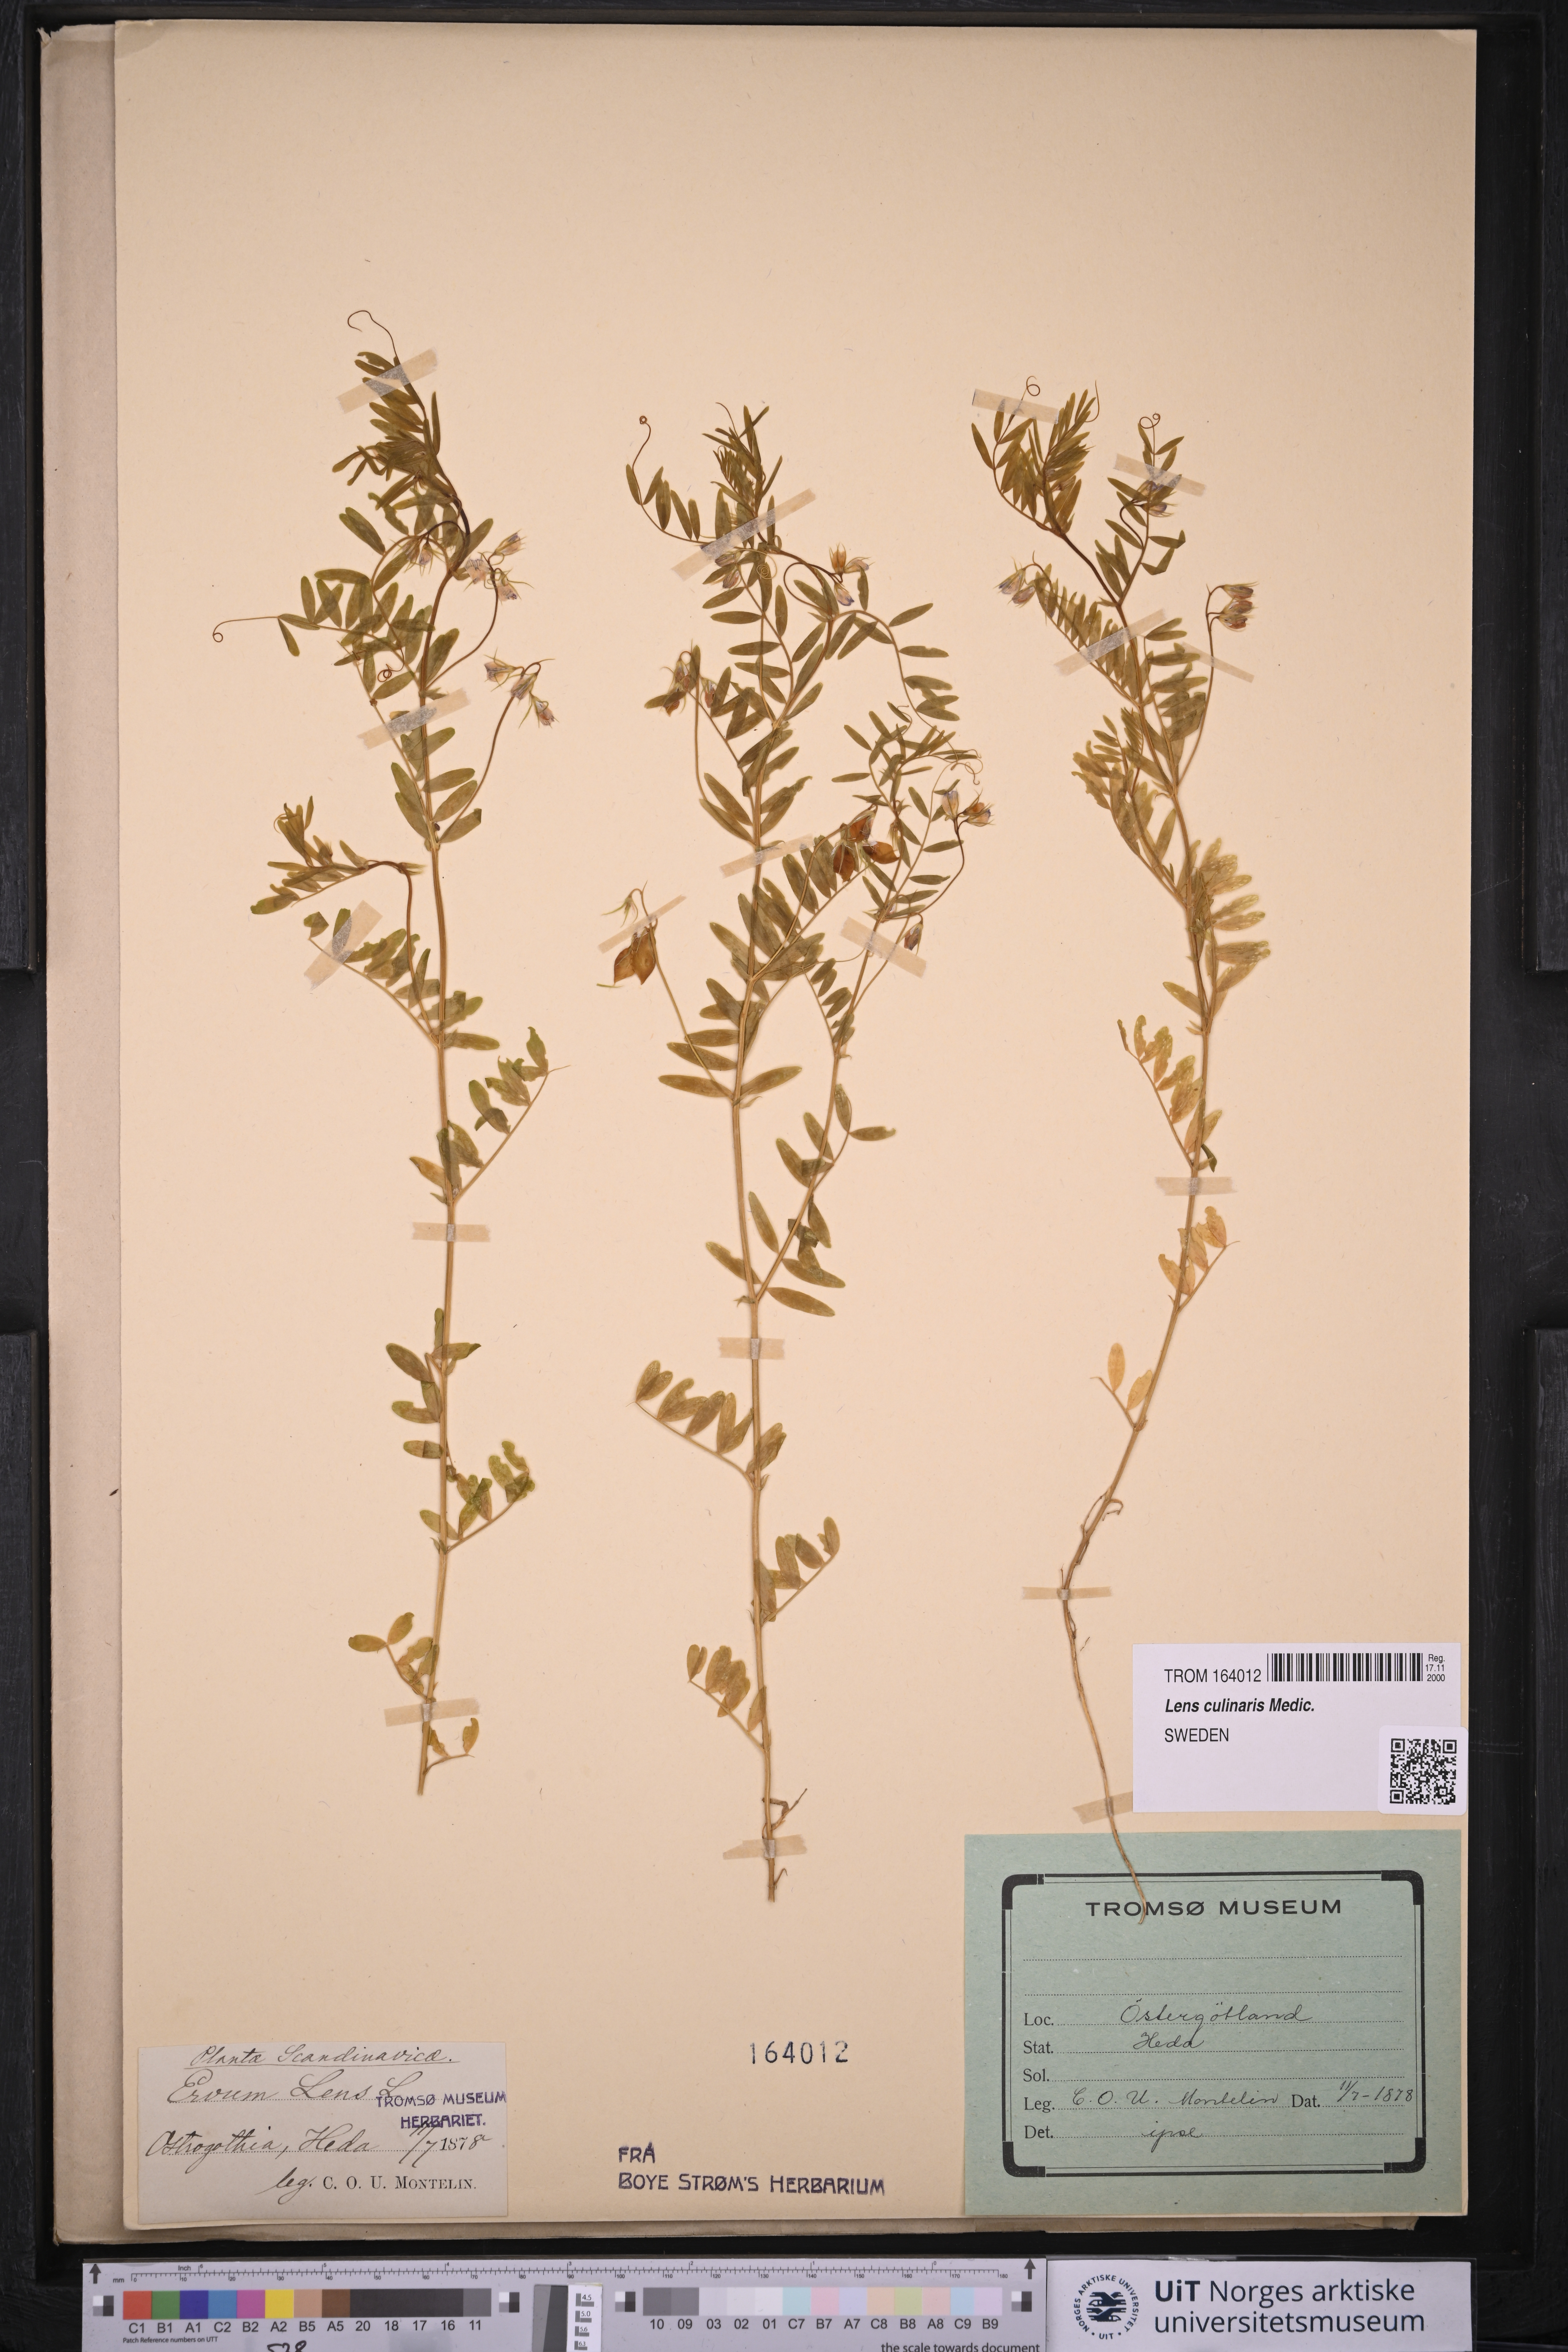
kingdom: Plantae
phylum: Tracheophyta
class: Magnoliopsida
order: Fabales
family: Fabaceae
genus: Vicia
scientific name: Vicia lens
